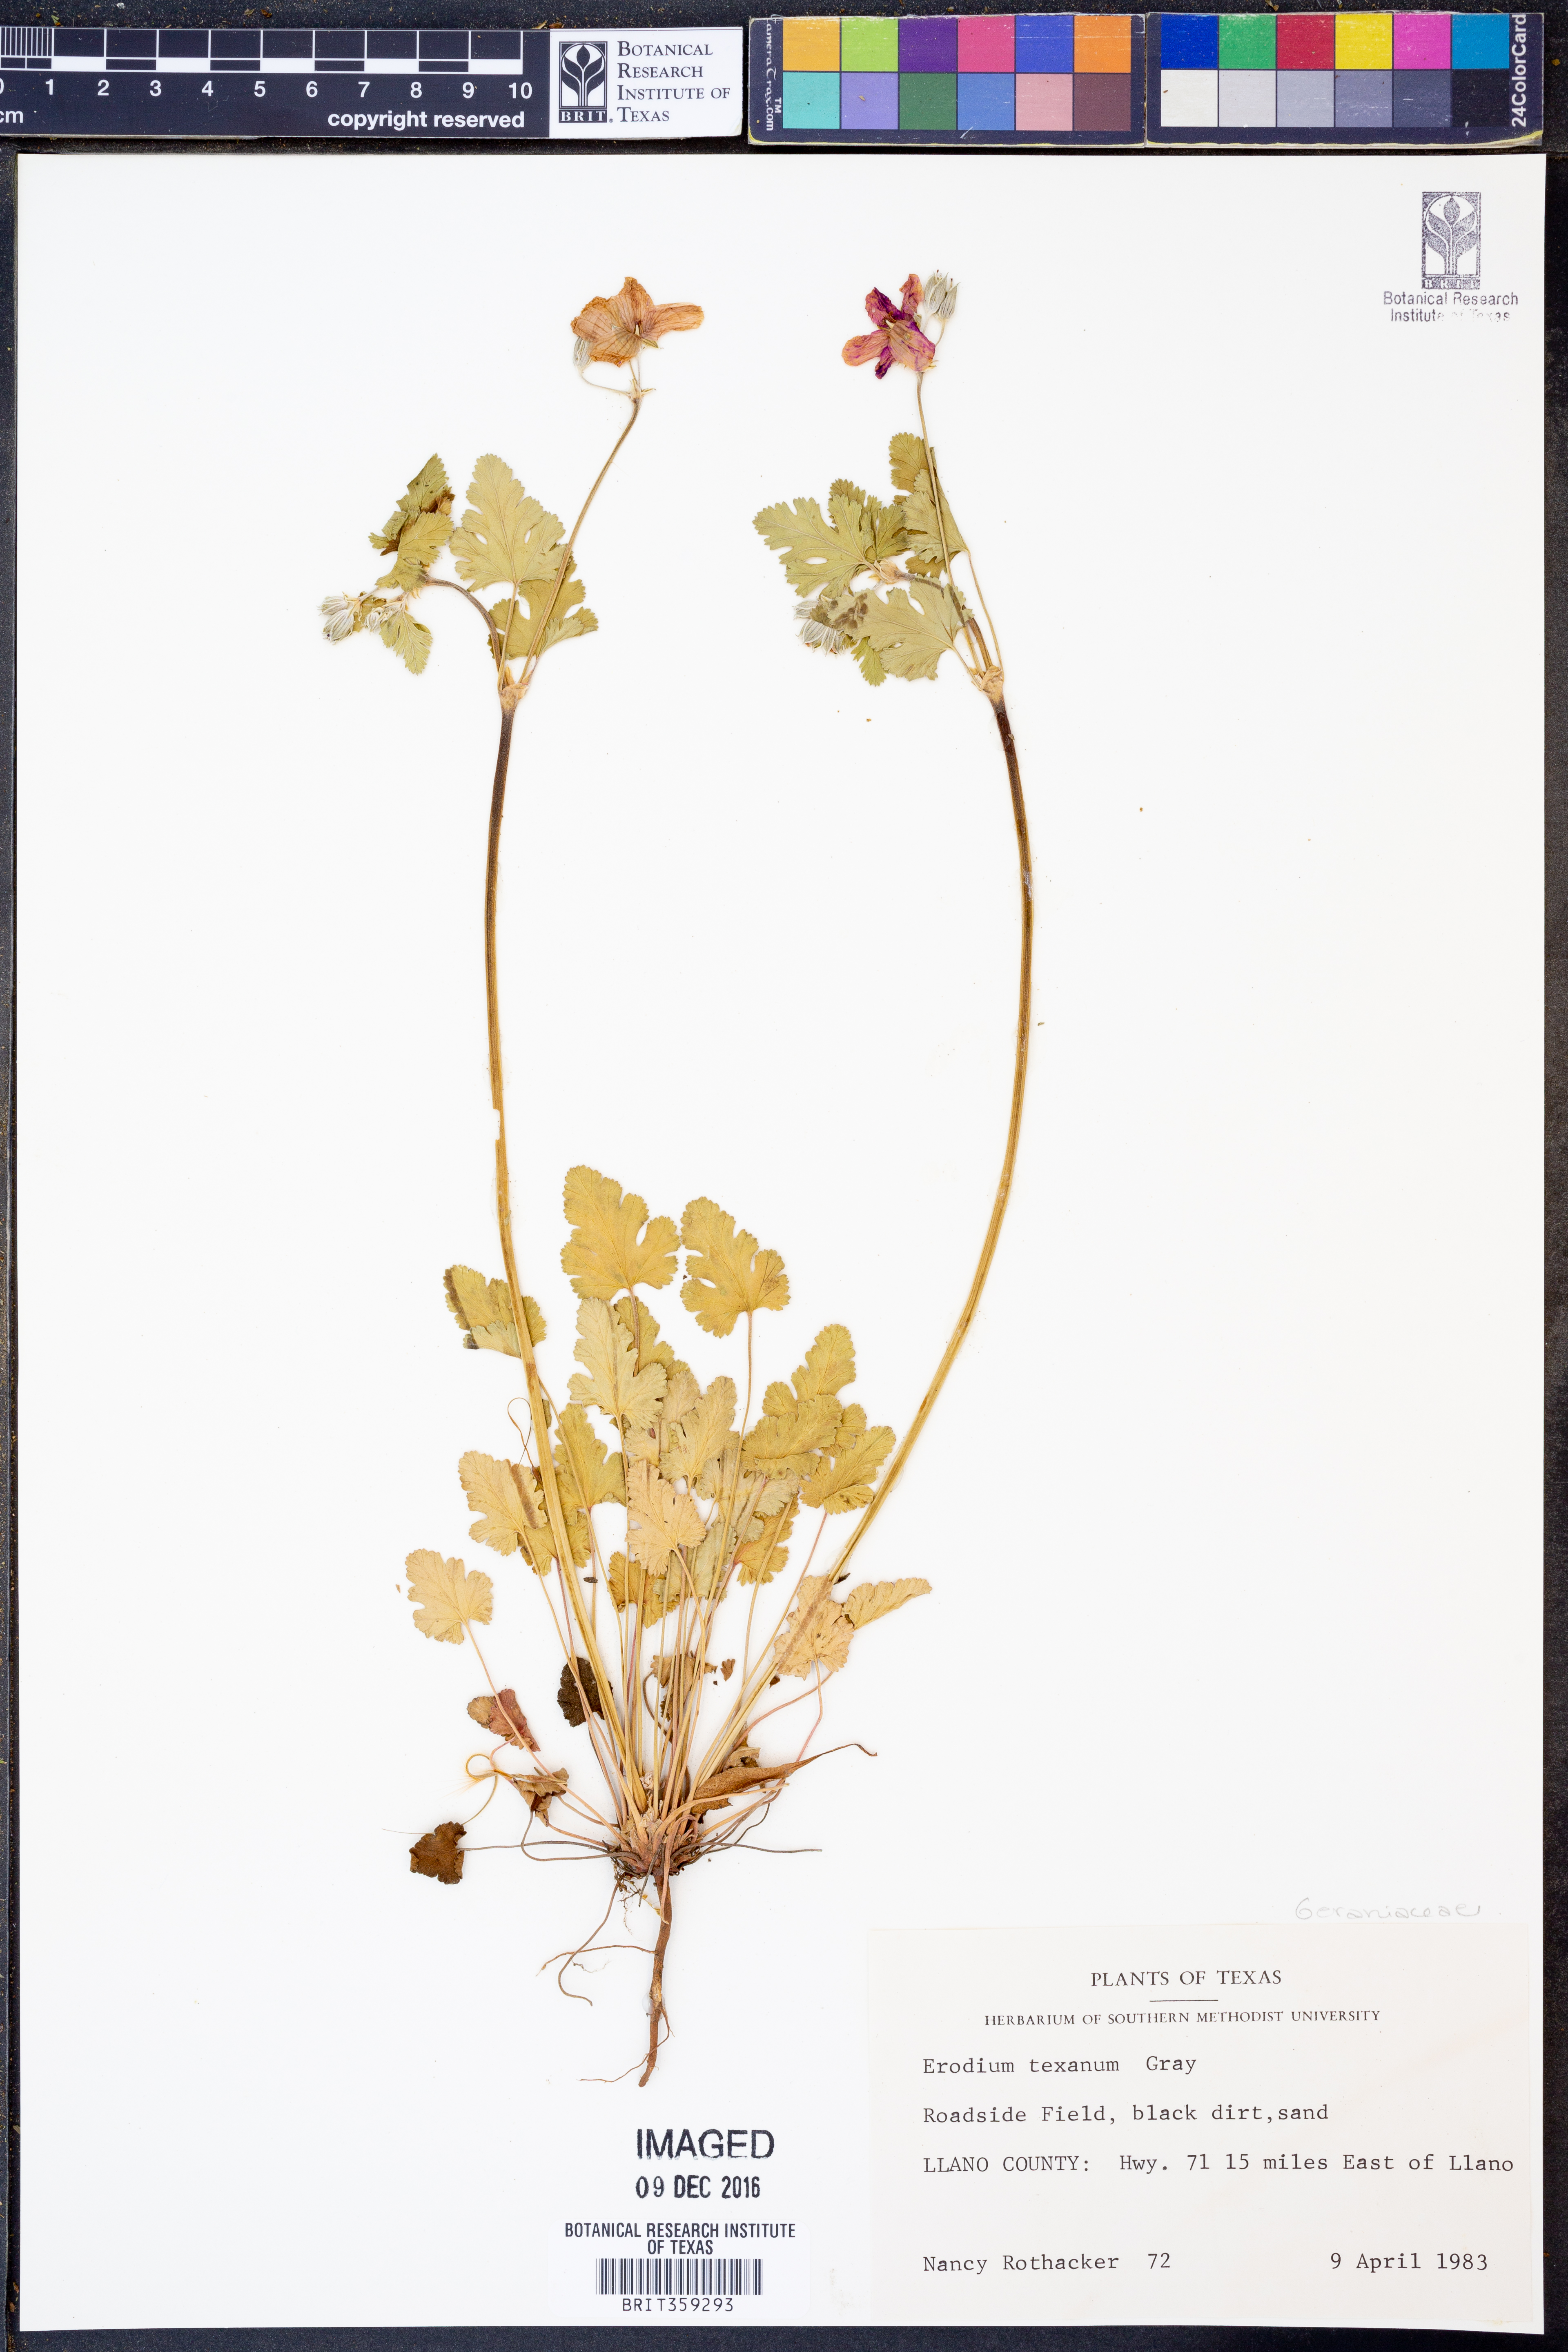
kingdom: Plantae
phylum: Tracheophyta
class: Magnoliopsida
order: Geraniales
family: Geraniaceae
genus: Erodium
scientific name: Erodium texanum
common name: Texas stork's-bill
